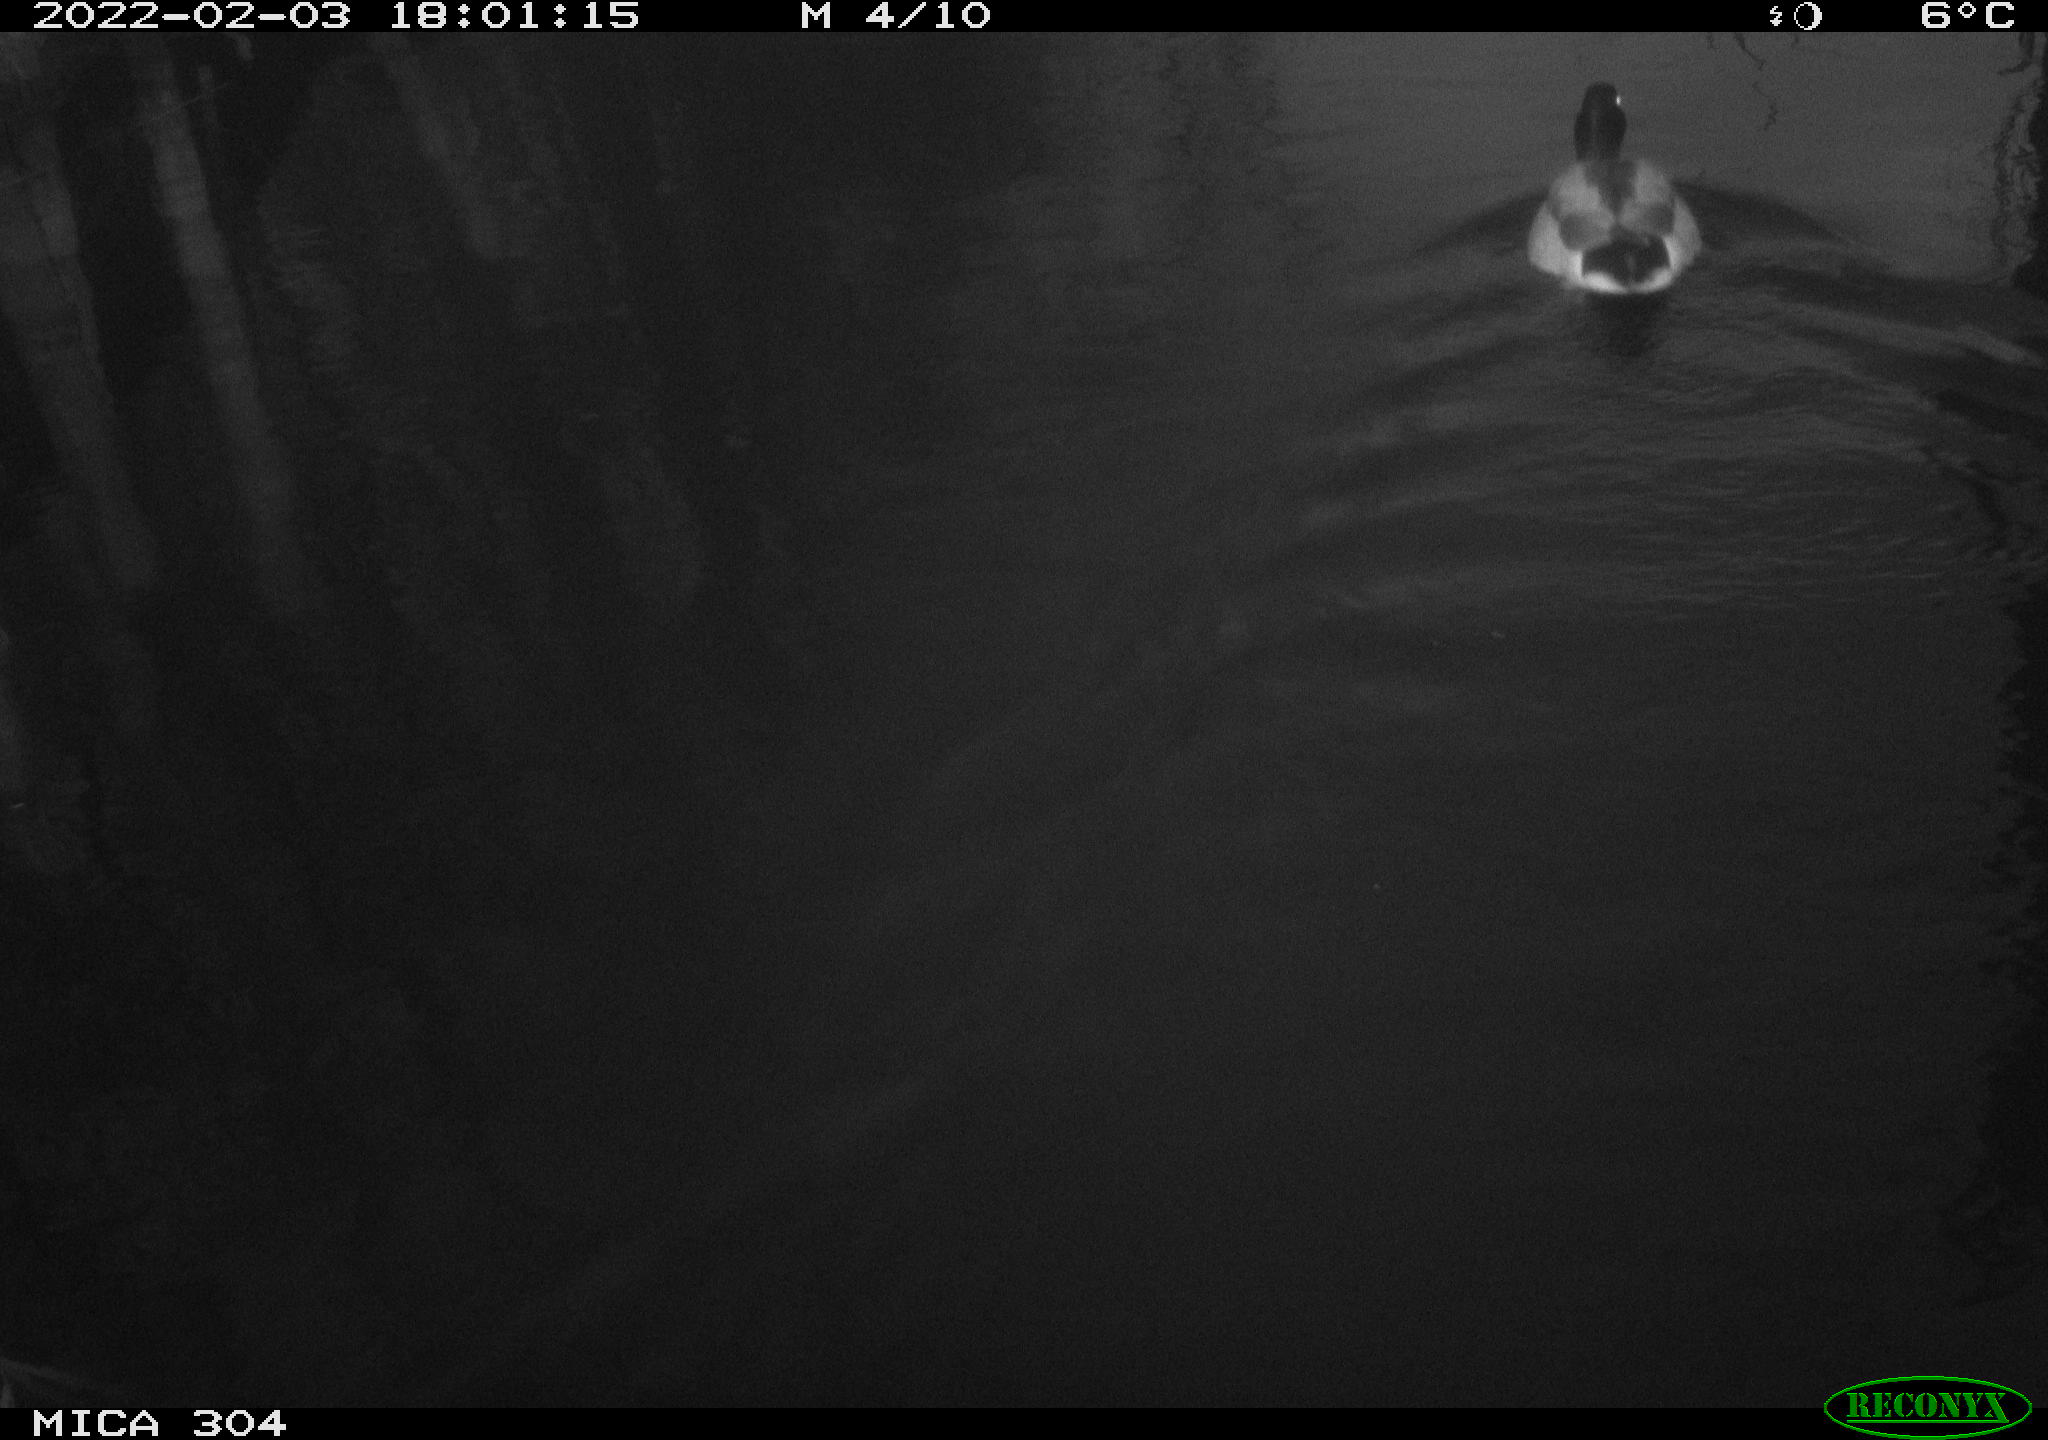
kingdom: Animalia
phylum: Chordata
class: Aves
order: Gruiformes
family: Rallidae
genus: Fulica
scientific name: Fulica atra
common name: Eurasian coot
